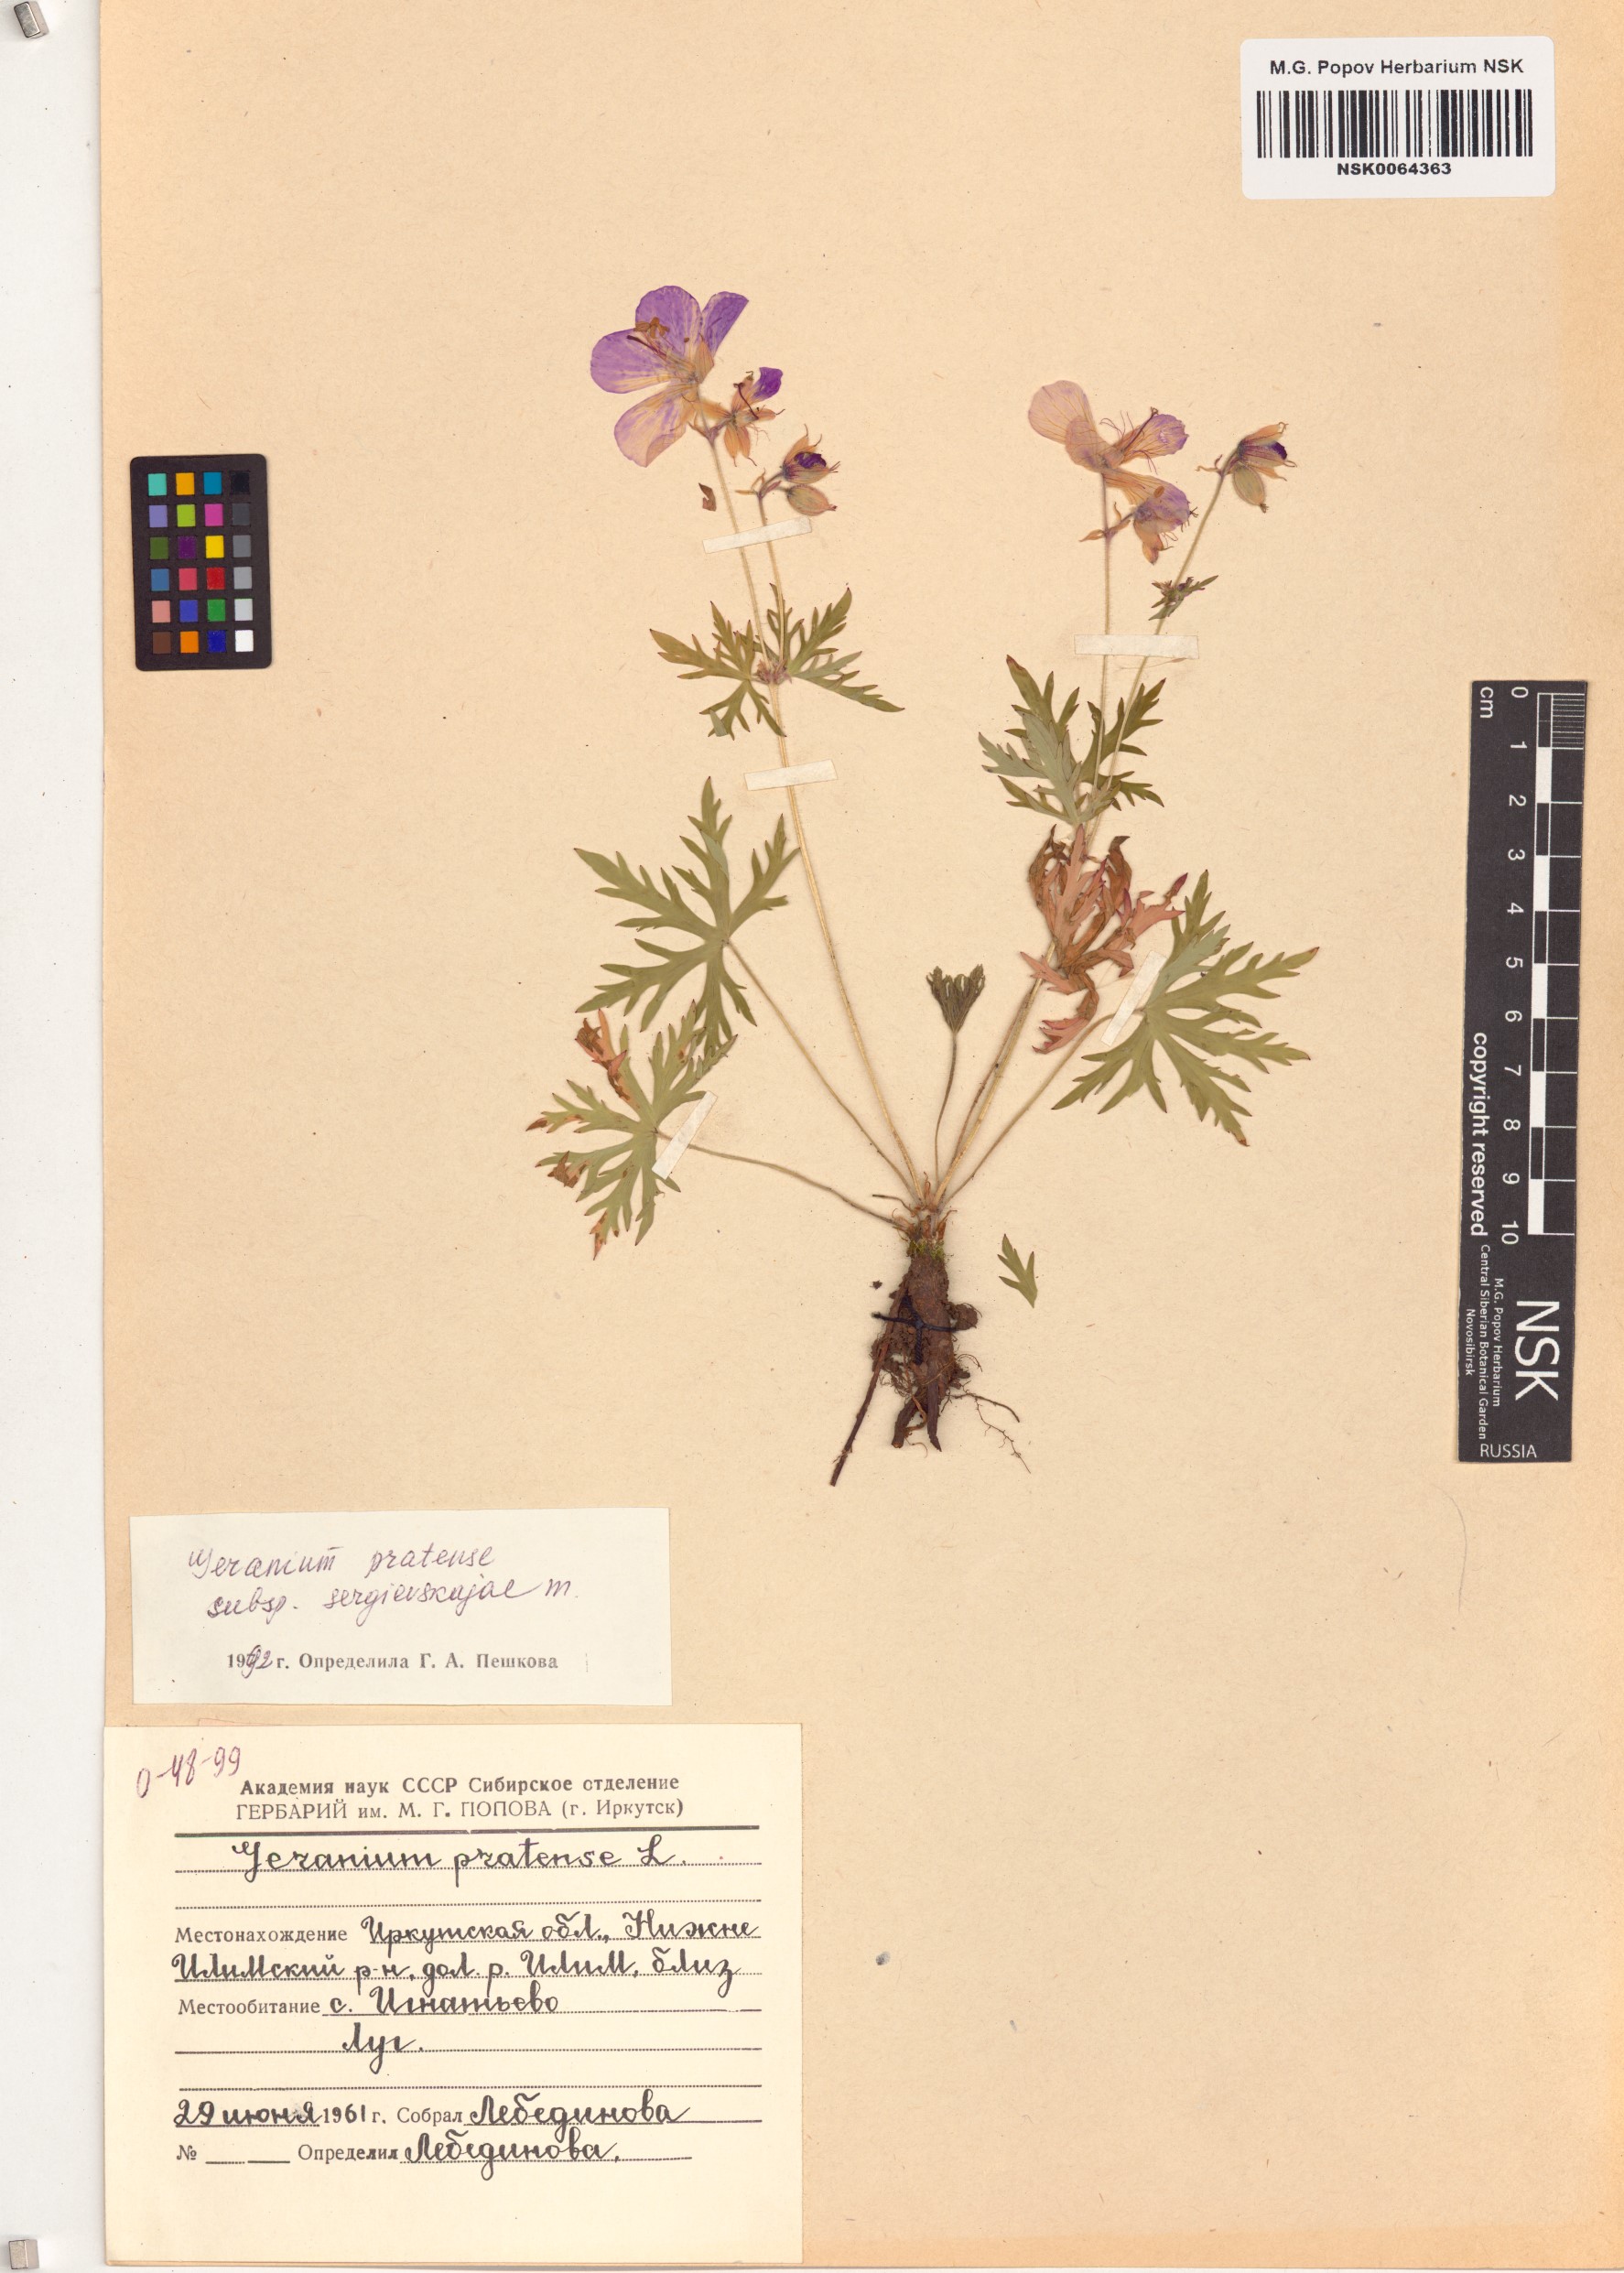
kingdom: Plantae
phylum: Tracheophyta
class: Magnoliopsida
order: Geraniales
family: Geraniaceae
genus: Geranium
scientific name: Geranium pratense
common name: Meadow crane's-bill
